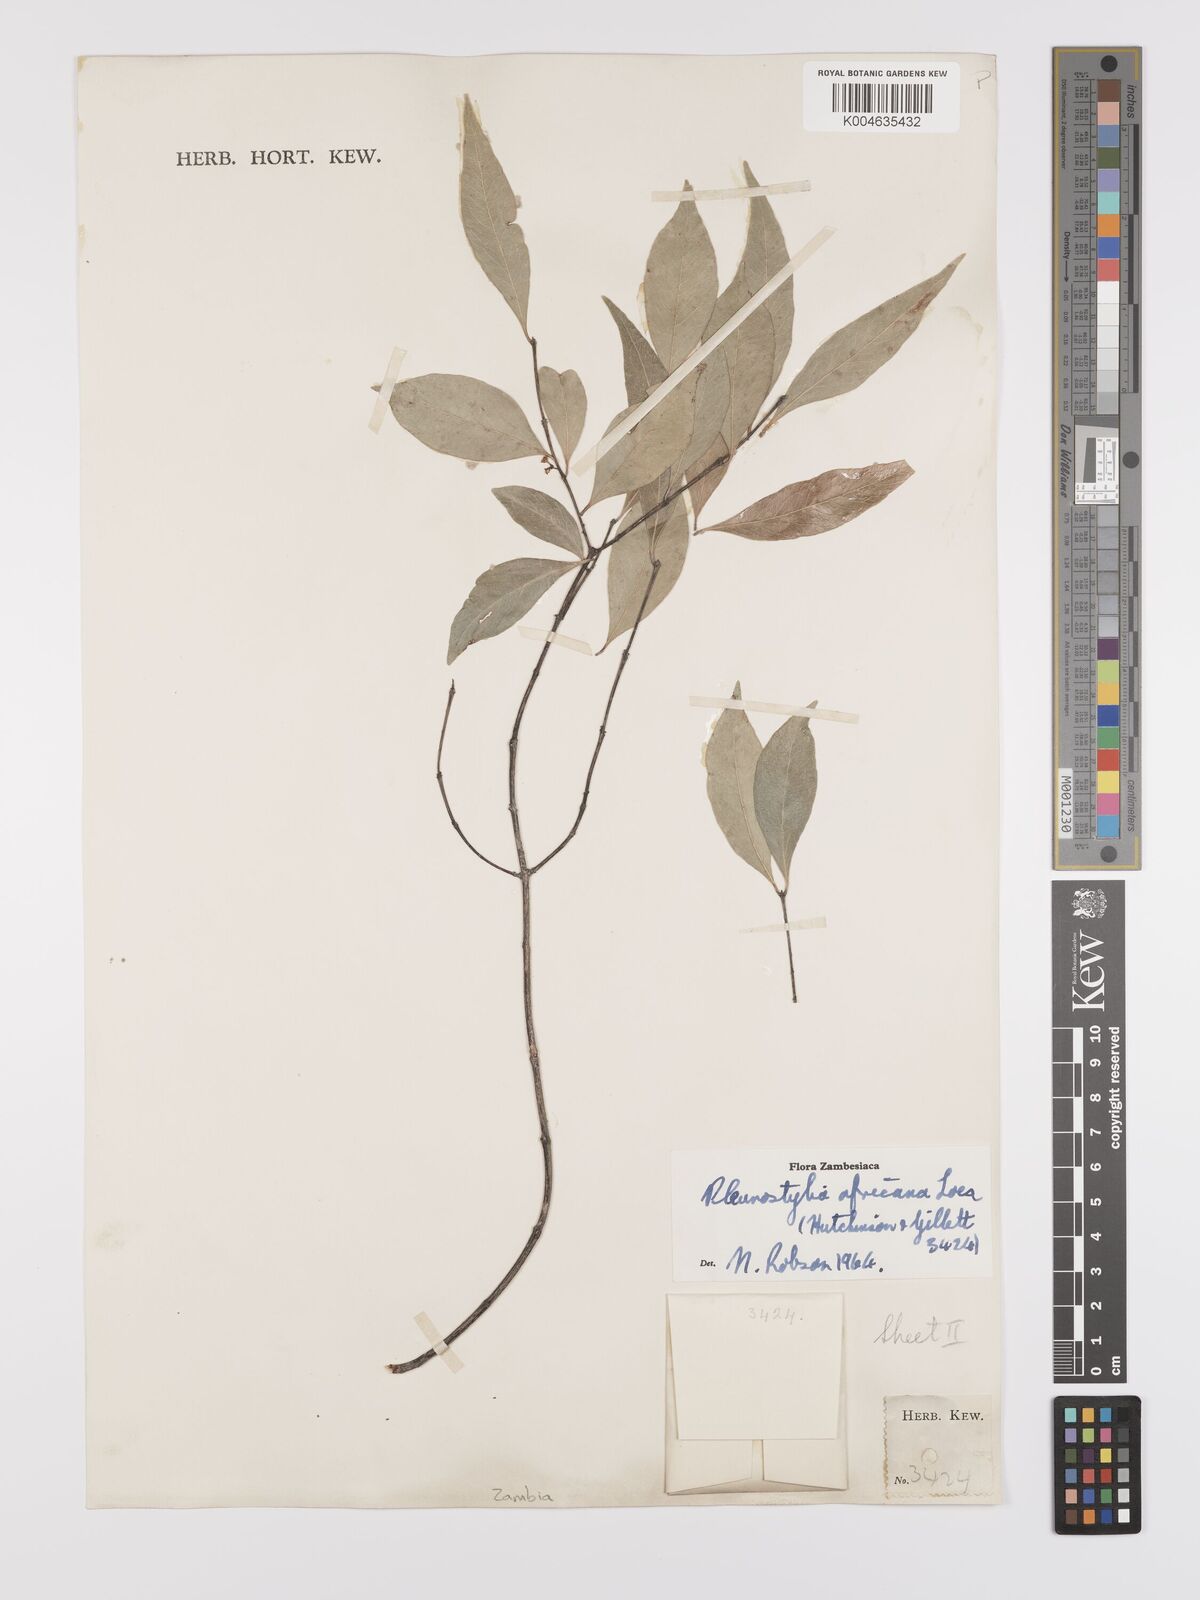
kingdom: Plantae
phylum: Tracheophyta
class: Magnoliopsida
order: Celastrales
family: Celastraceae
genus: Pleurostylia
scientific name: Pleurostylia africana
